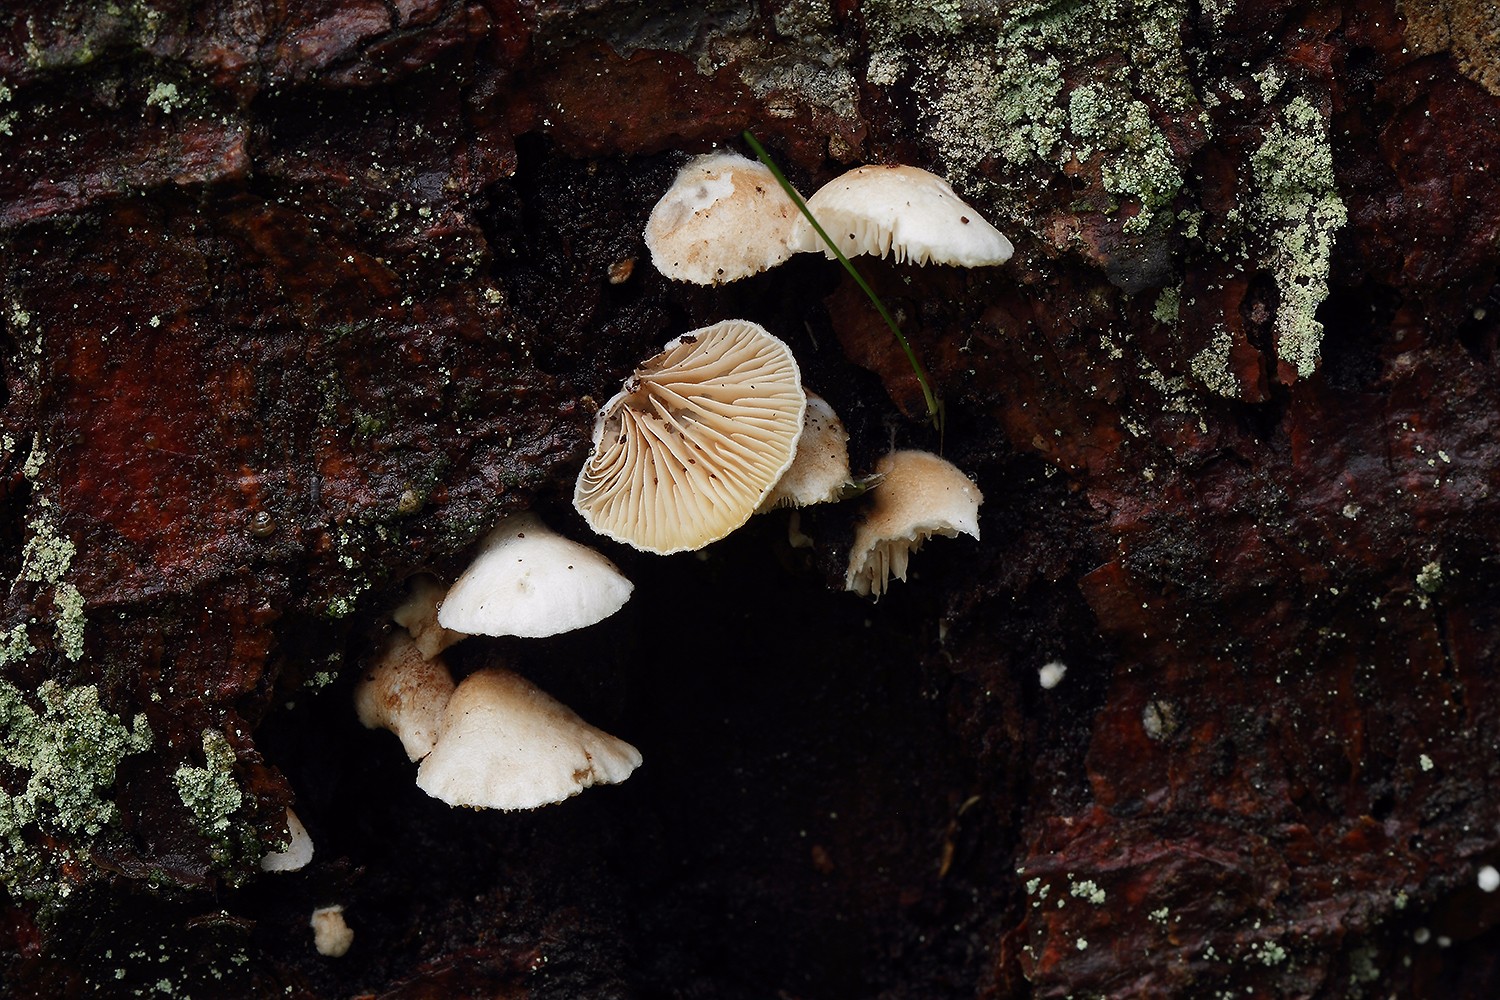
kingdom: Fungi
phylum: Basidiomycota
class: Agaricomycetes
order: Agaricales
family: Crepidotaceae
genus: Crepidotus
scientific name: Crepidotus kubickae
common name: gran-muslingesvamp
